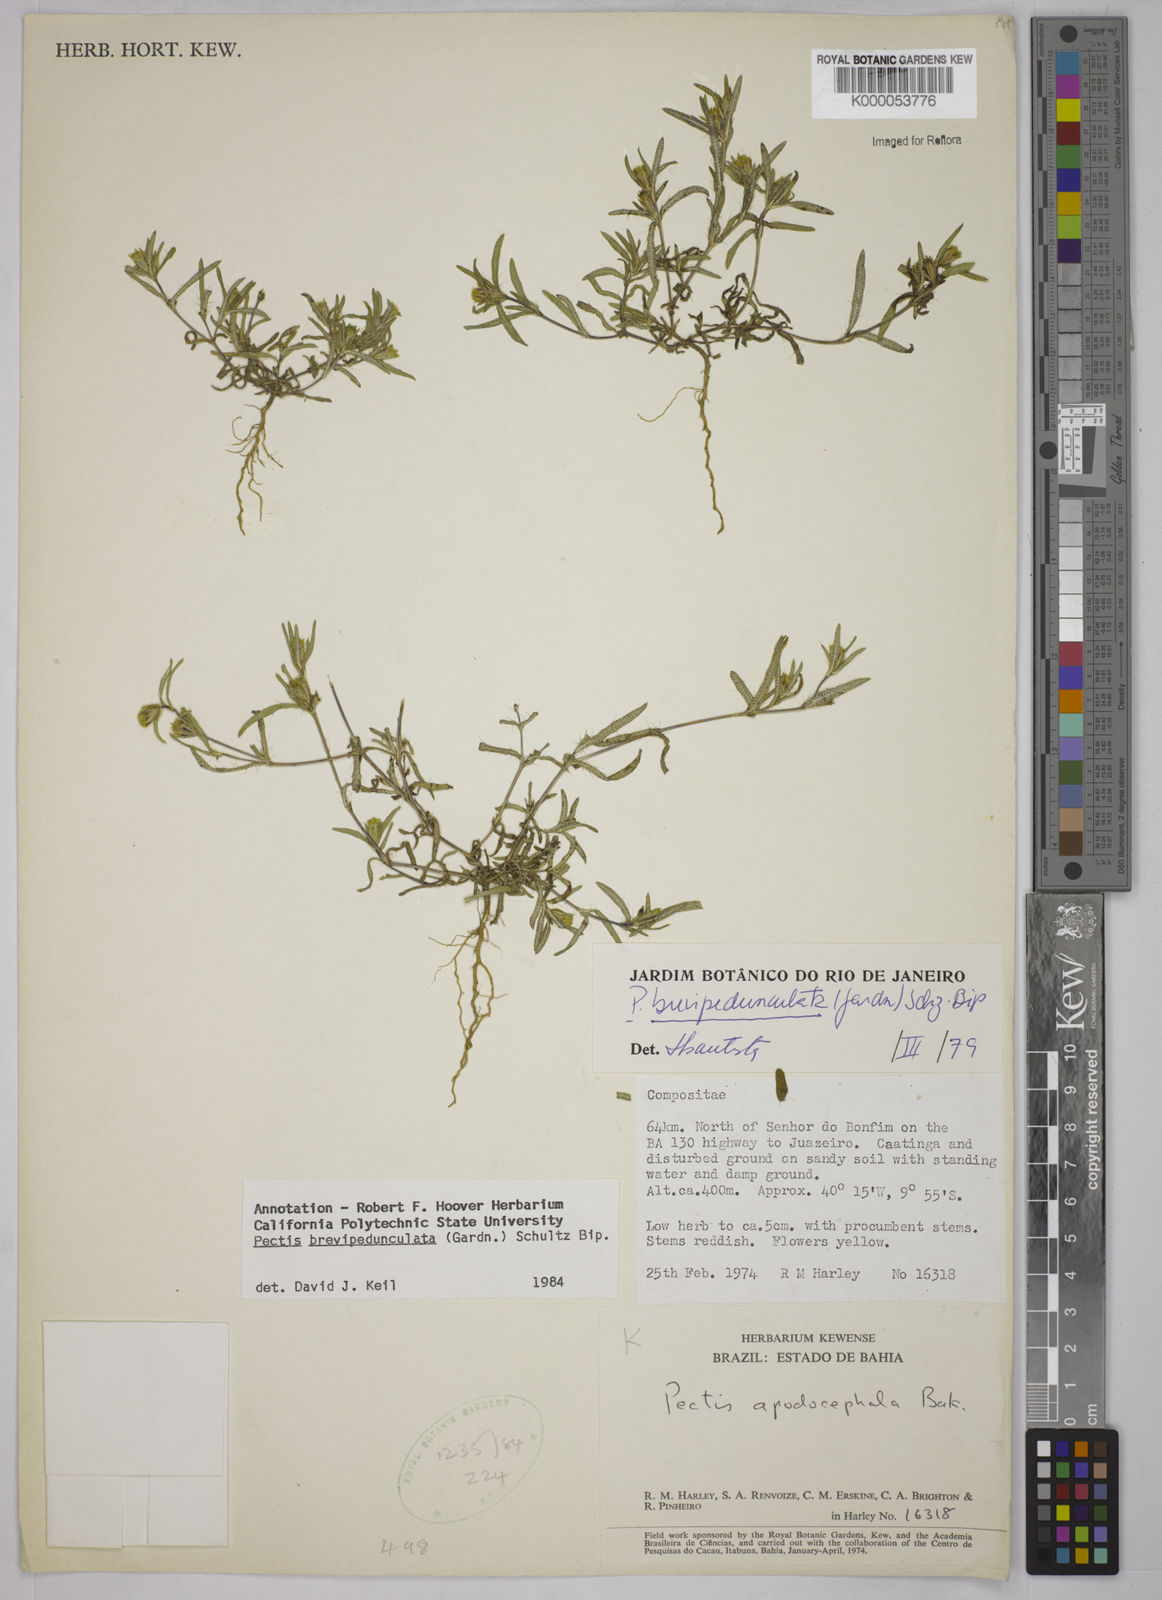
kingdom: Plantae
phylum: Tracheophyta
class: Magnoliopsida
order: Asterales
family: Asteraceae
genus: Pectis
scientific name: Pectis brevipedunculata
